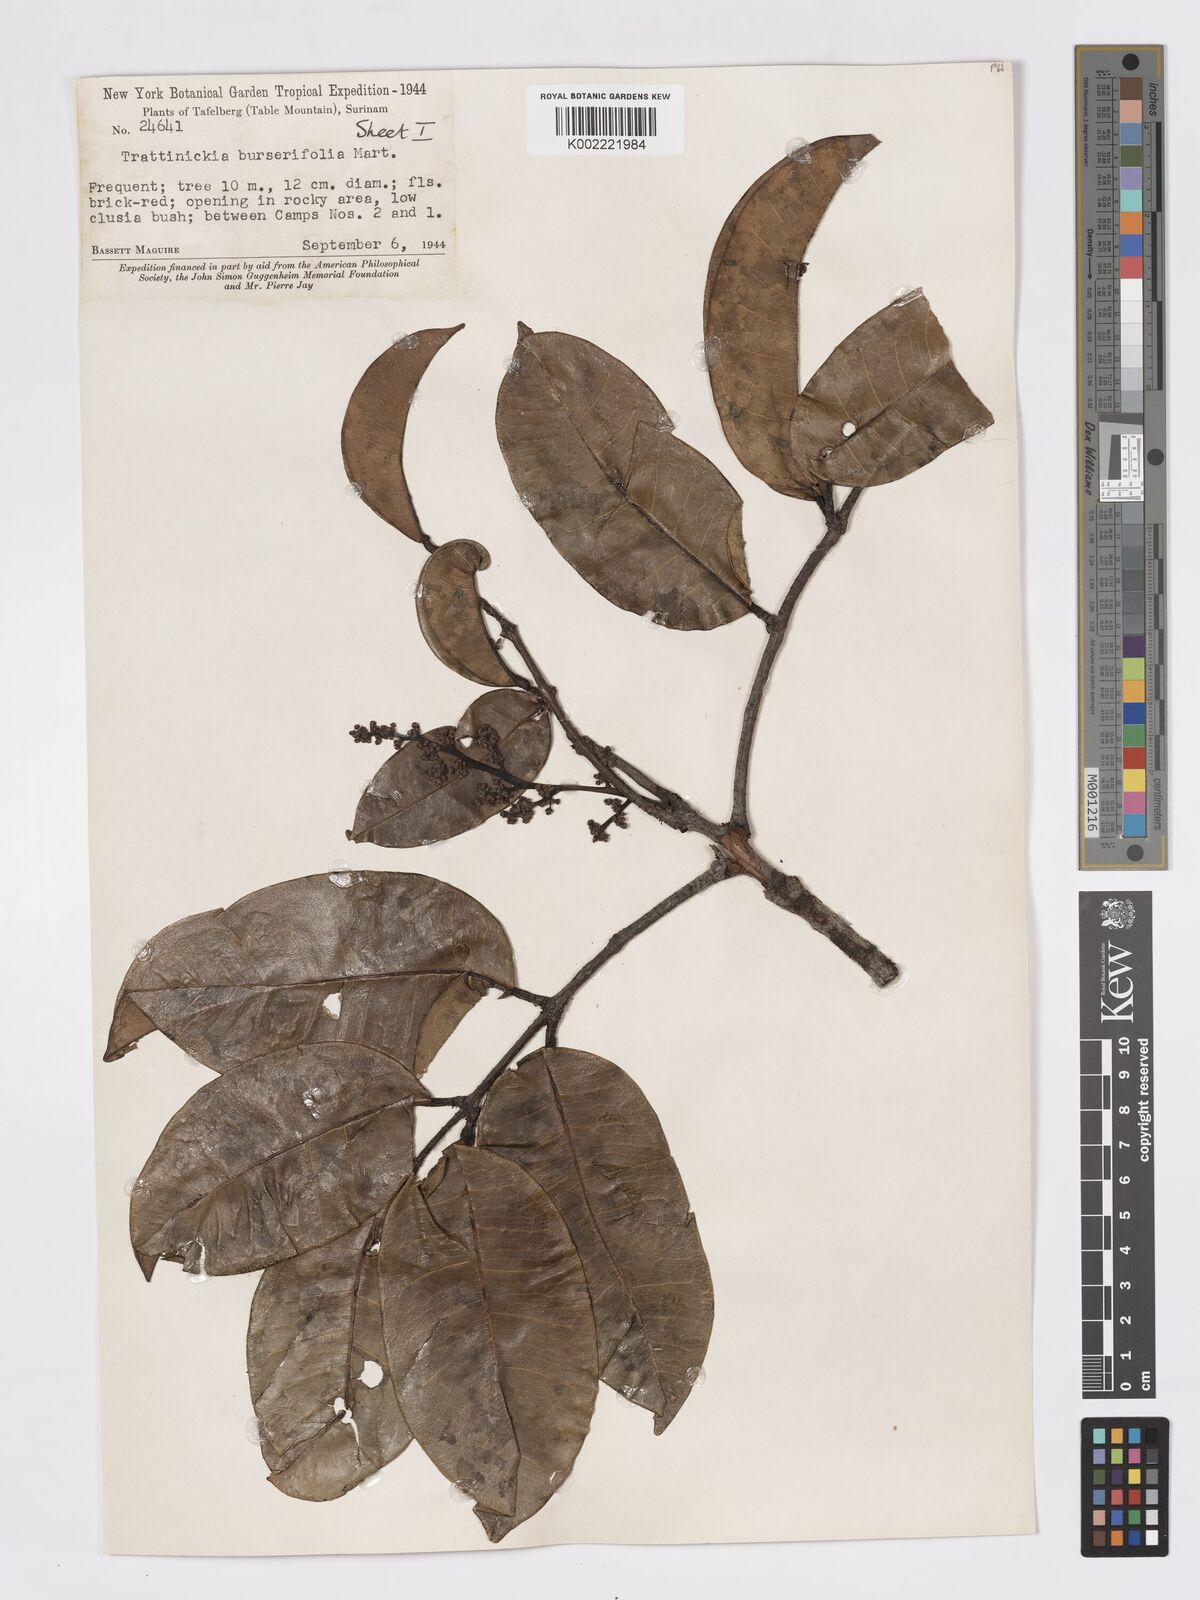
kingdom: Plantae
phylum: Tracheophyta
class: Magnoliopsida
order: Sapindales
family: Burseraceae
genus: Trattinnickia
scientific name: Trattinnickia burserifolia
